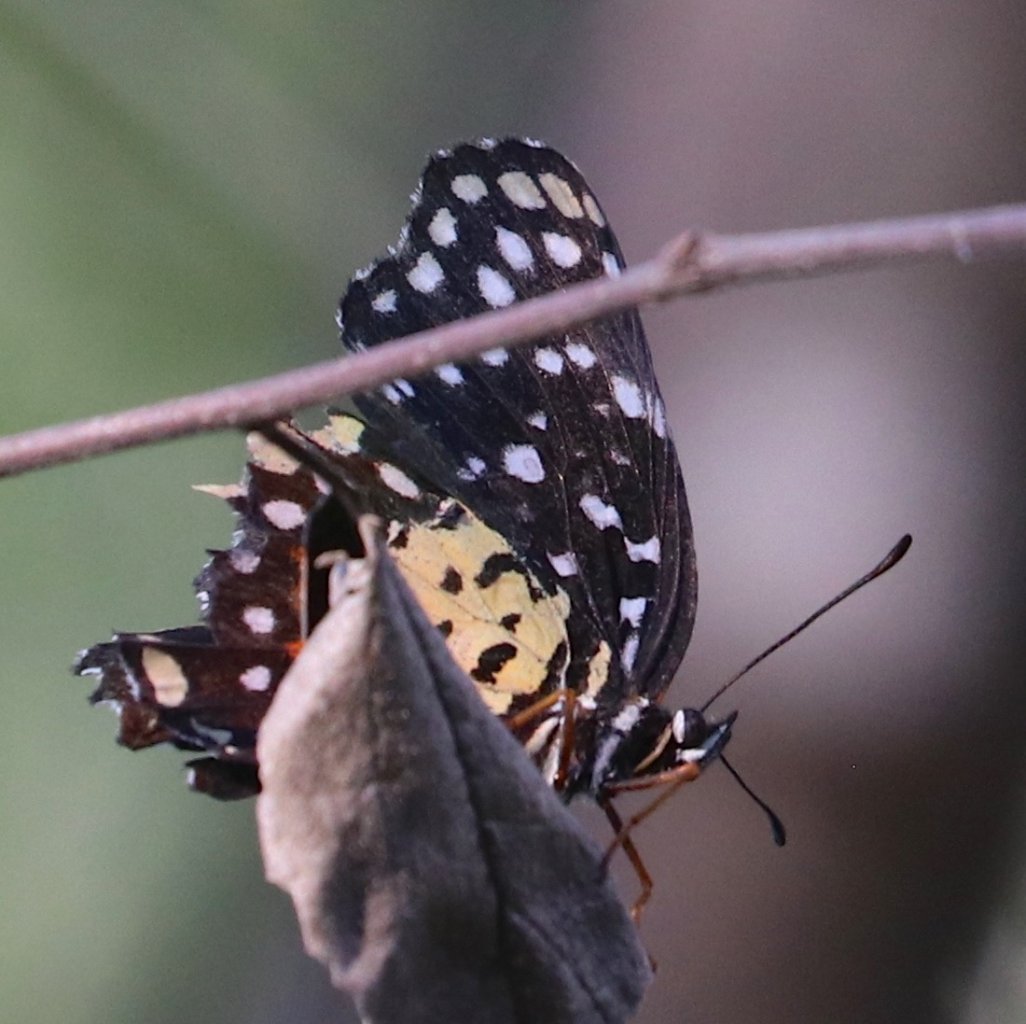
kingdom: Animalia
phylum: Arthropoda
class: Insecta
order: Lepidoptera
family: Nymphalidae
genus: Chlosyne
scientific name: Chlosyne janais
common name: Crimson Patch
